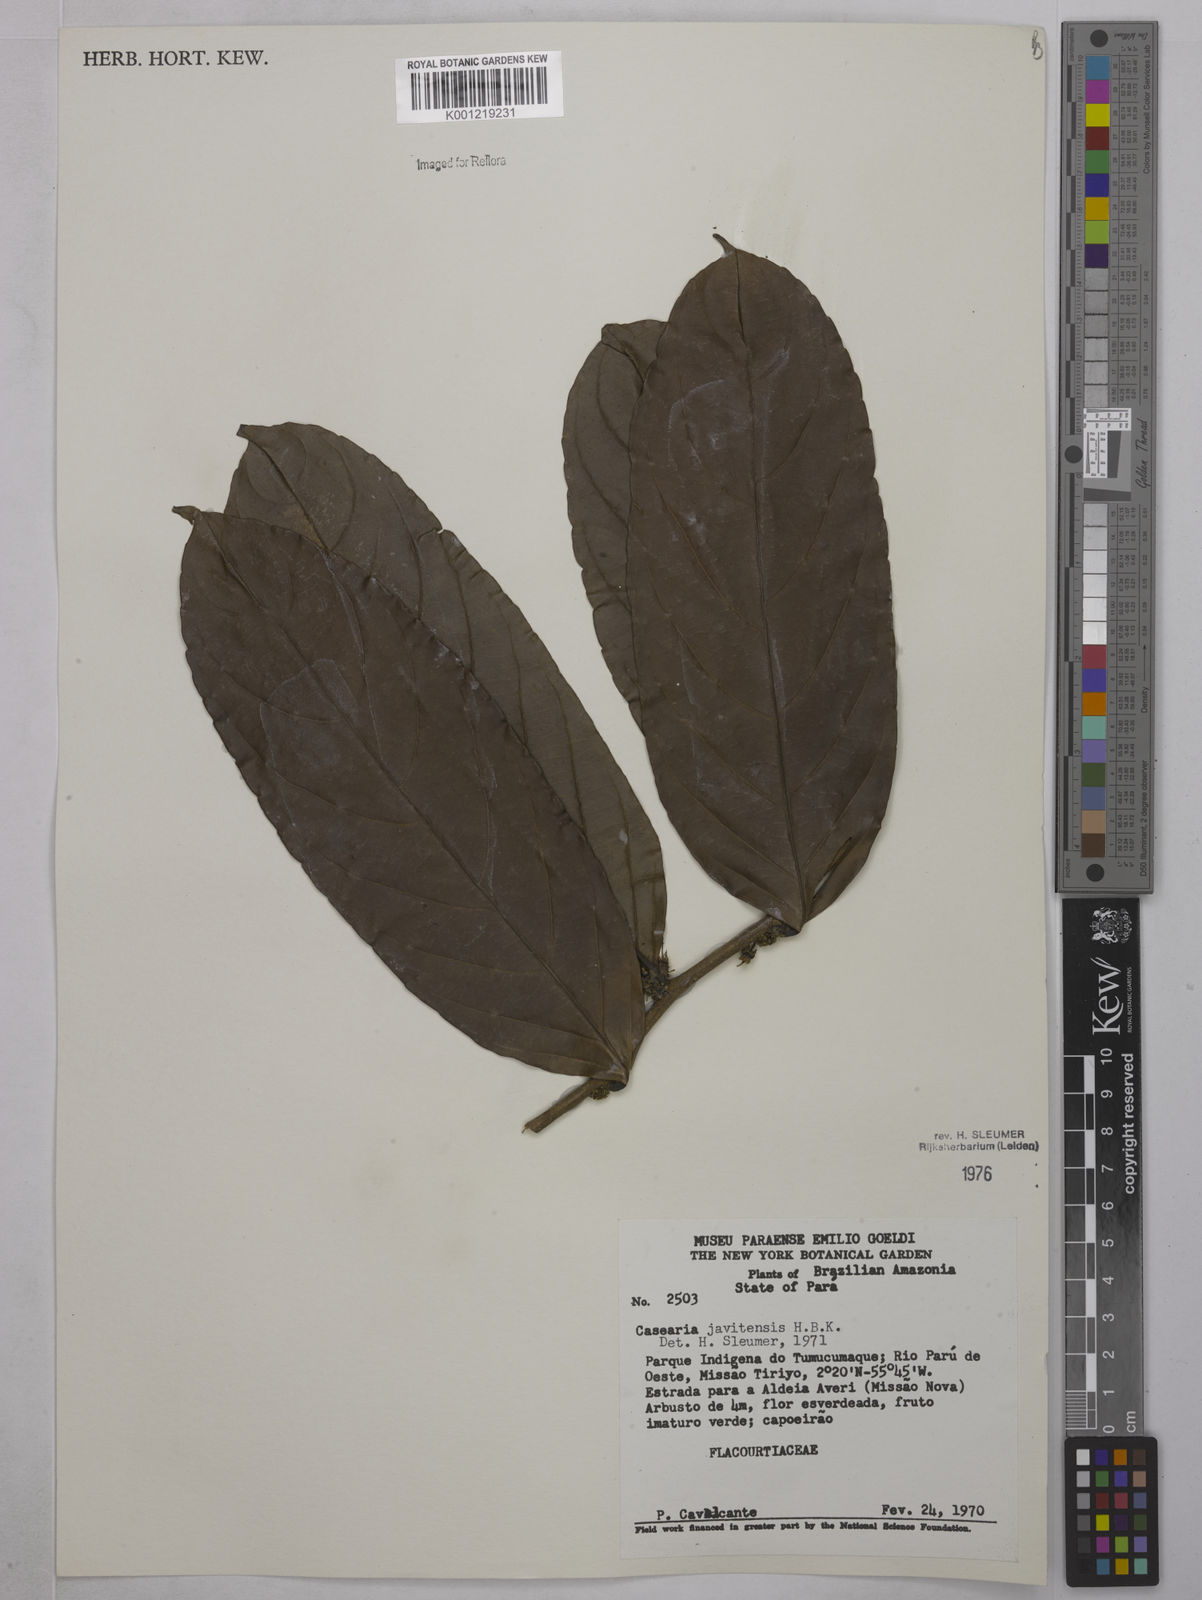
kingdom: Plantae
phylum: Tracheophyta
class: Magnoliopsida
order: Malpighiales
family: Salicaceae
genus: Piparea
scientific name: Piparea multiflora
